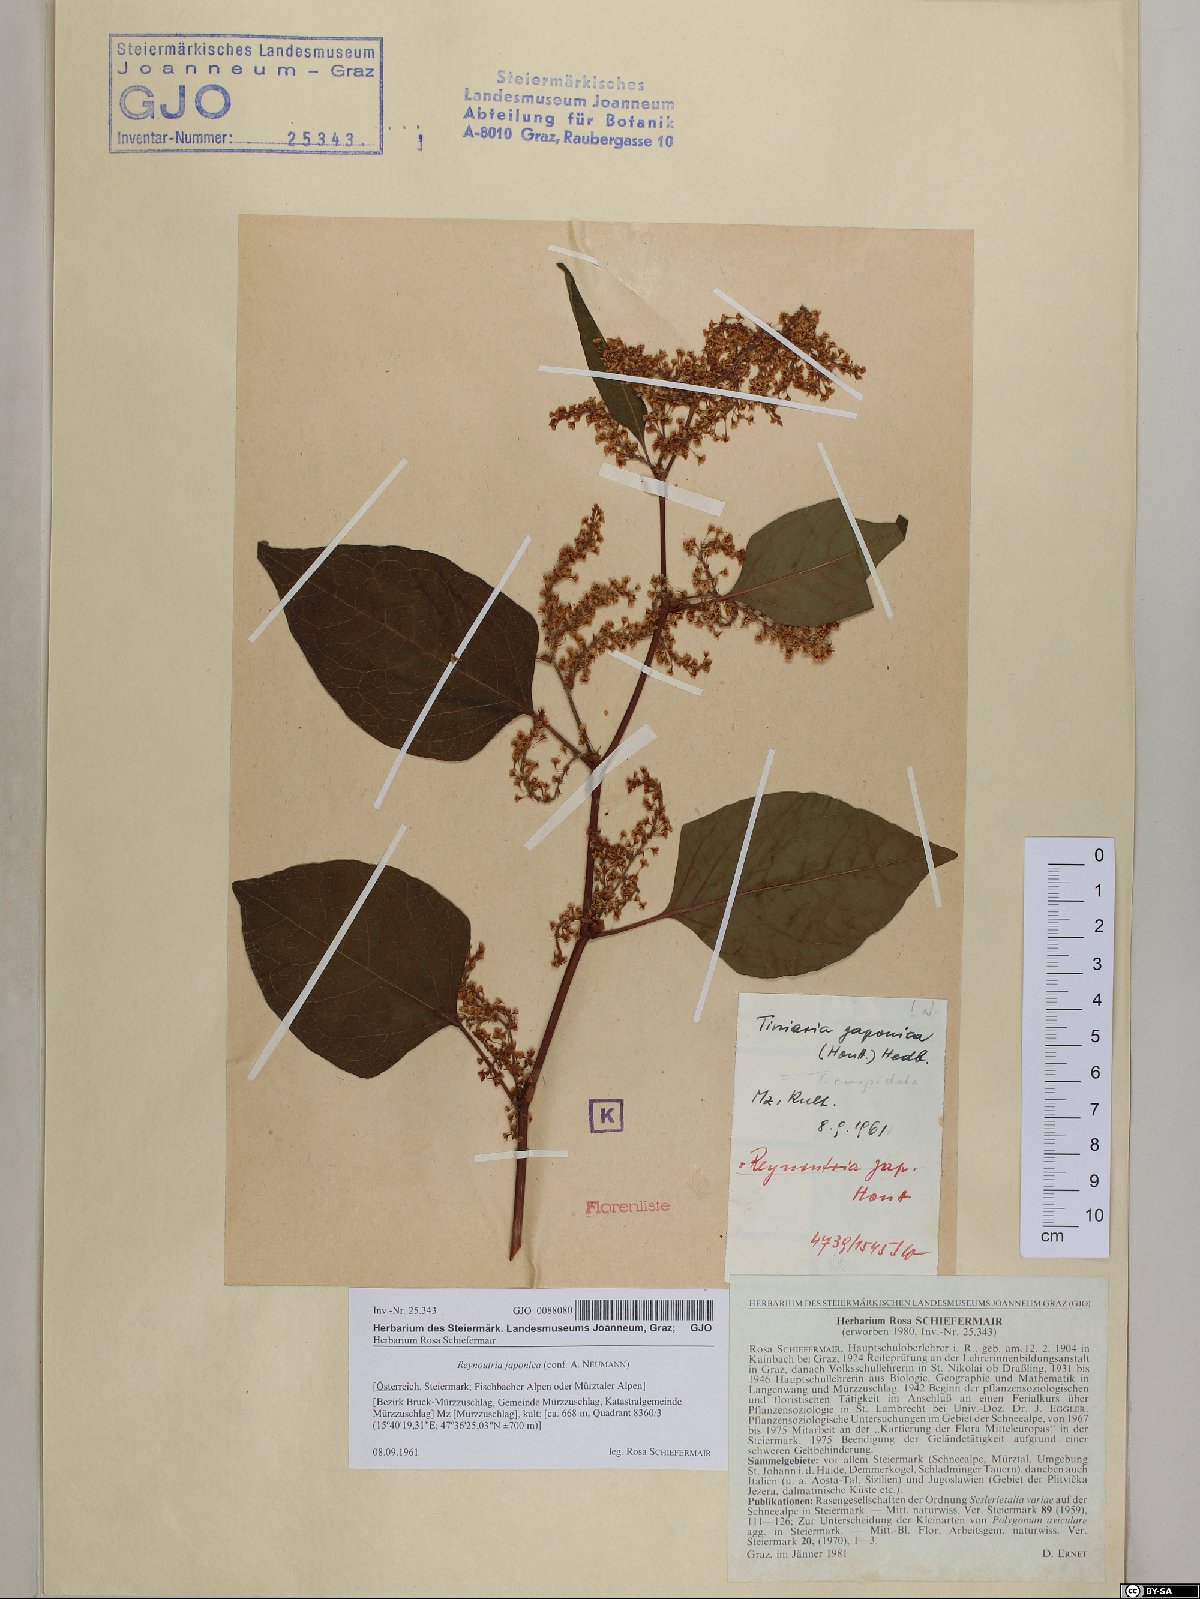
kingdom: Plantae
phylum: Tracheophyta
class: Magnoliopsida
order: Caryophyllales
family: Polygonaceae
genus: Reynoutria
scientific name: Reynoutria japonica
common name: Japanese knotweed
